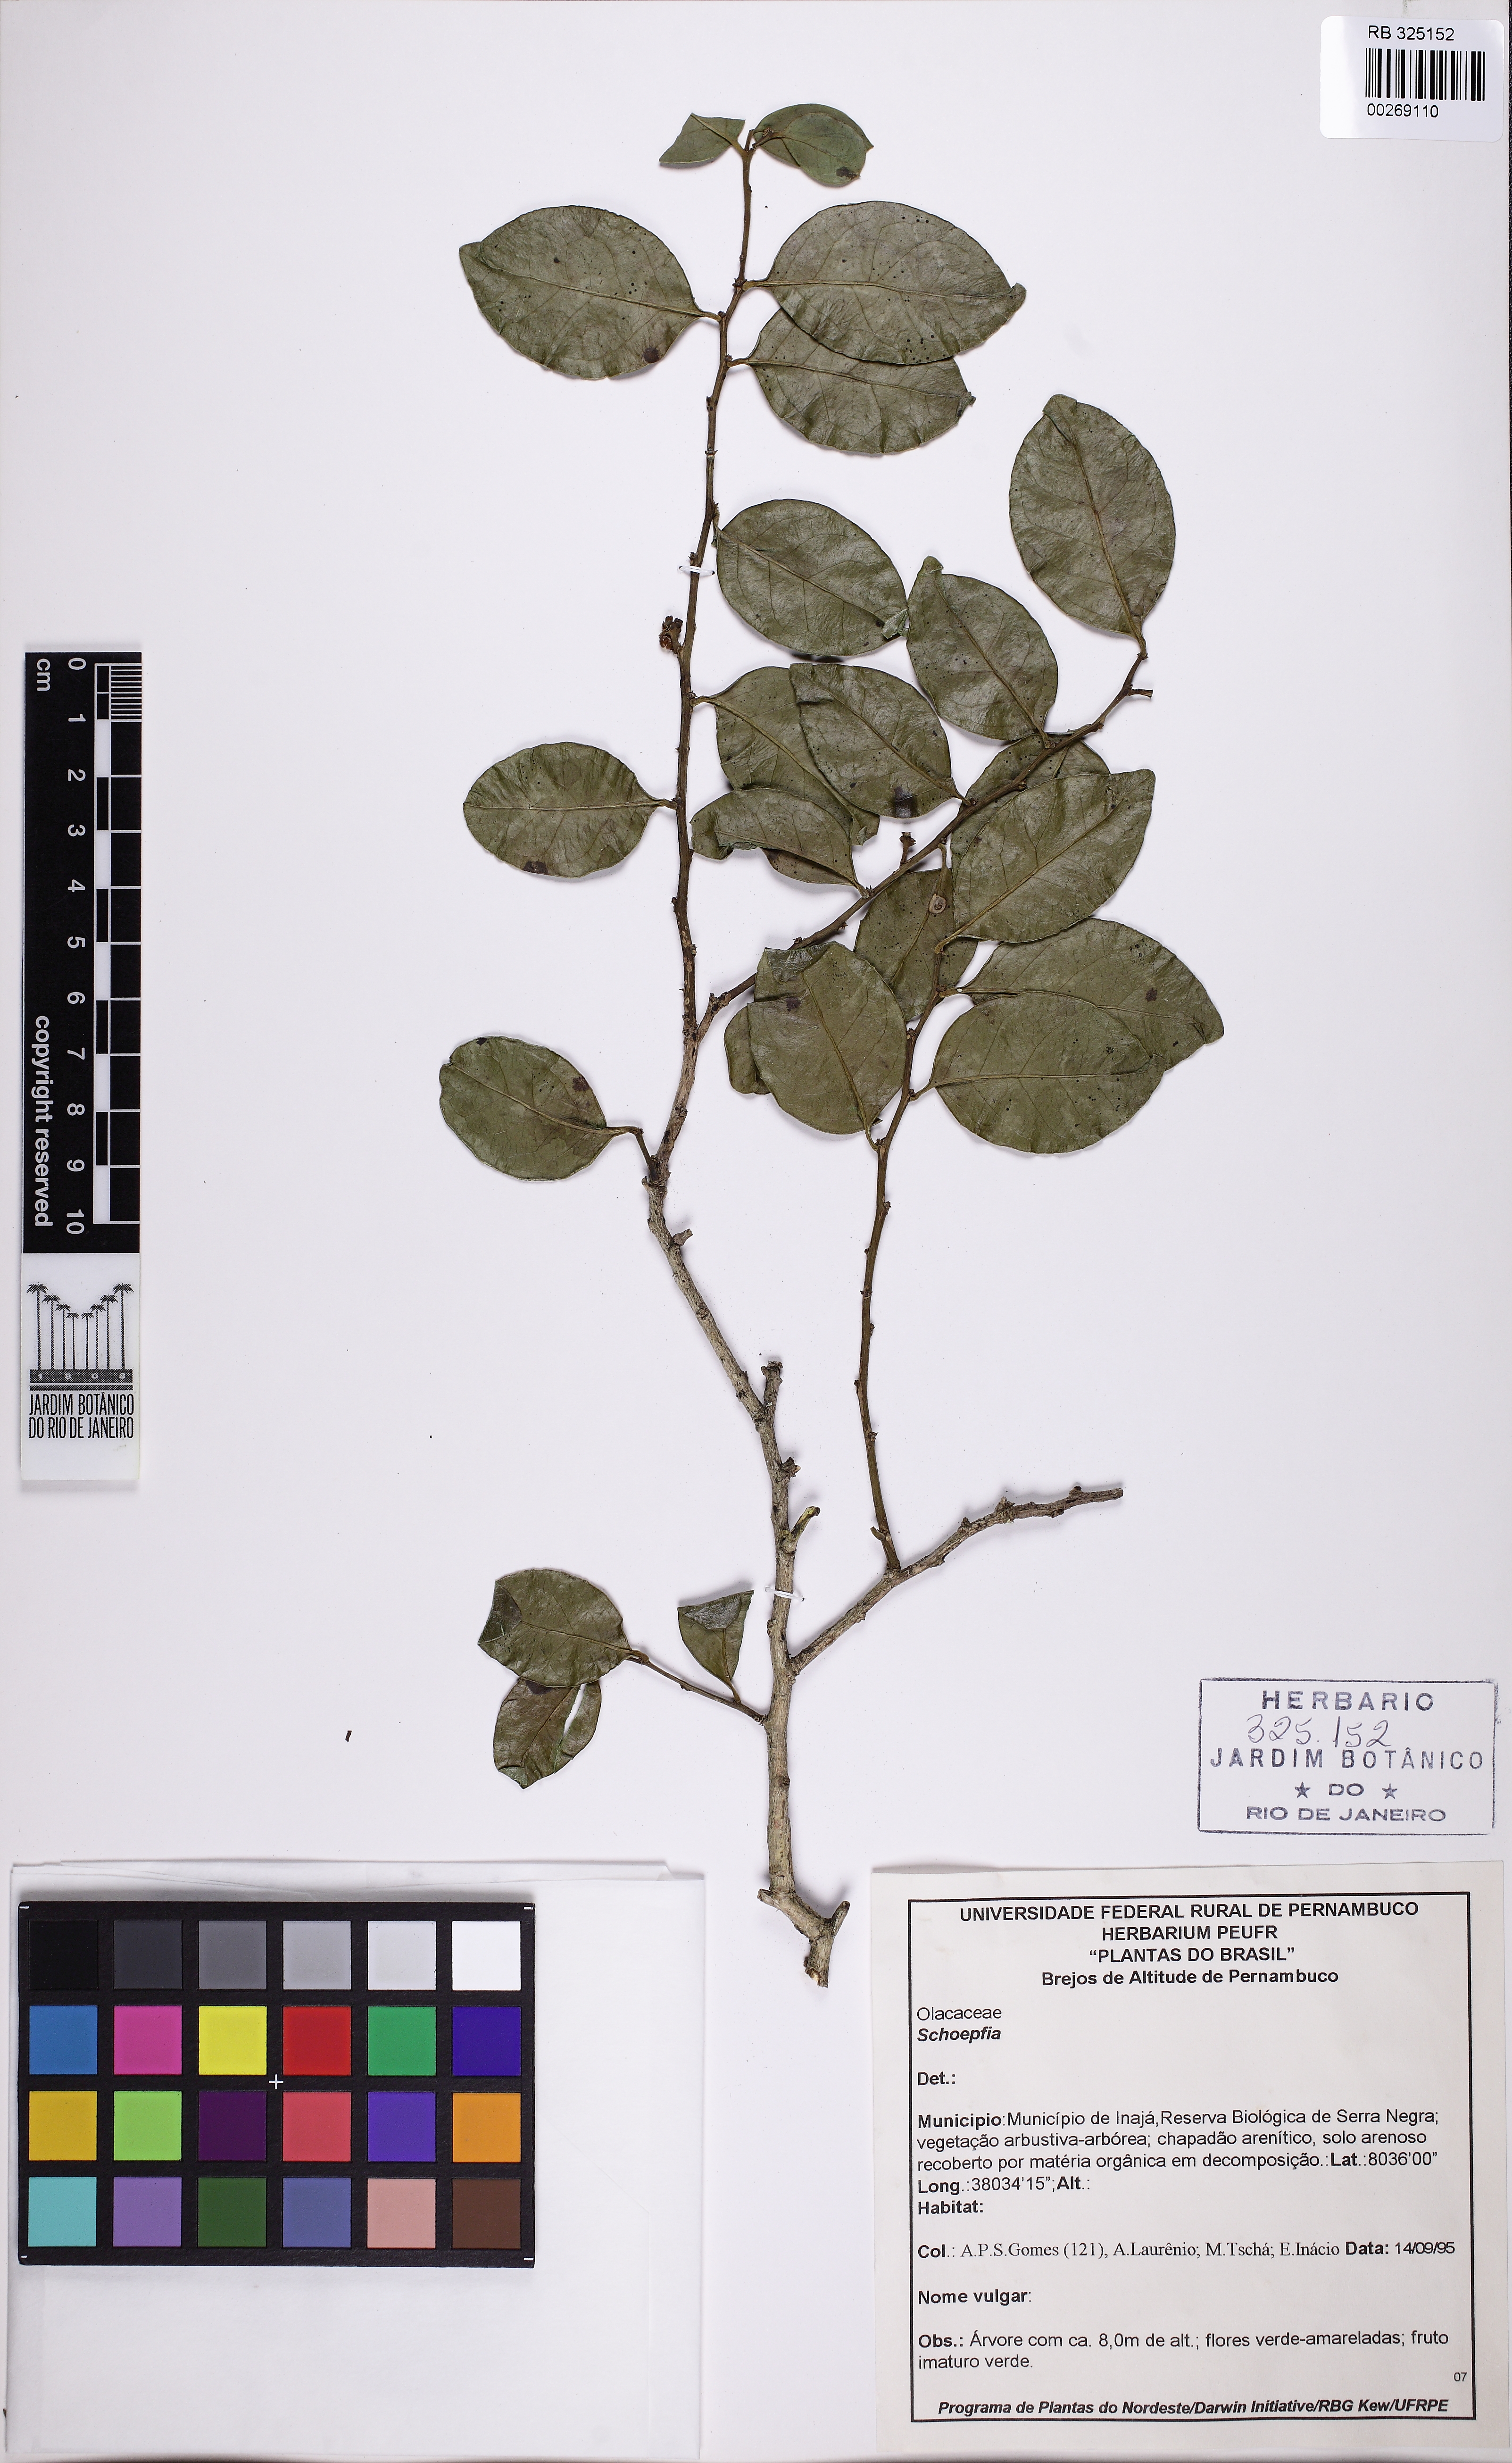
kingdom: Plantae
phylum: Tracheophyta
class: Magnoliopsida
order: Santalales
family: Schoepfiaceae
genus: Schoepfia
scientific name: Schoepfia
